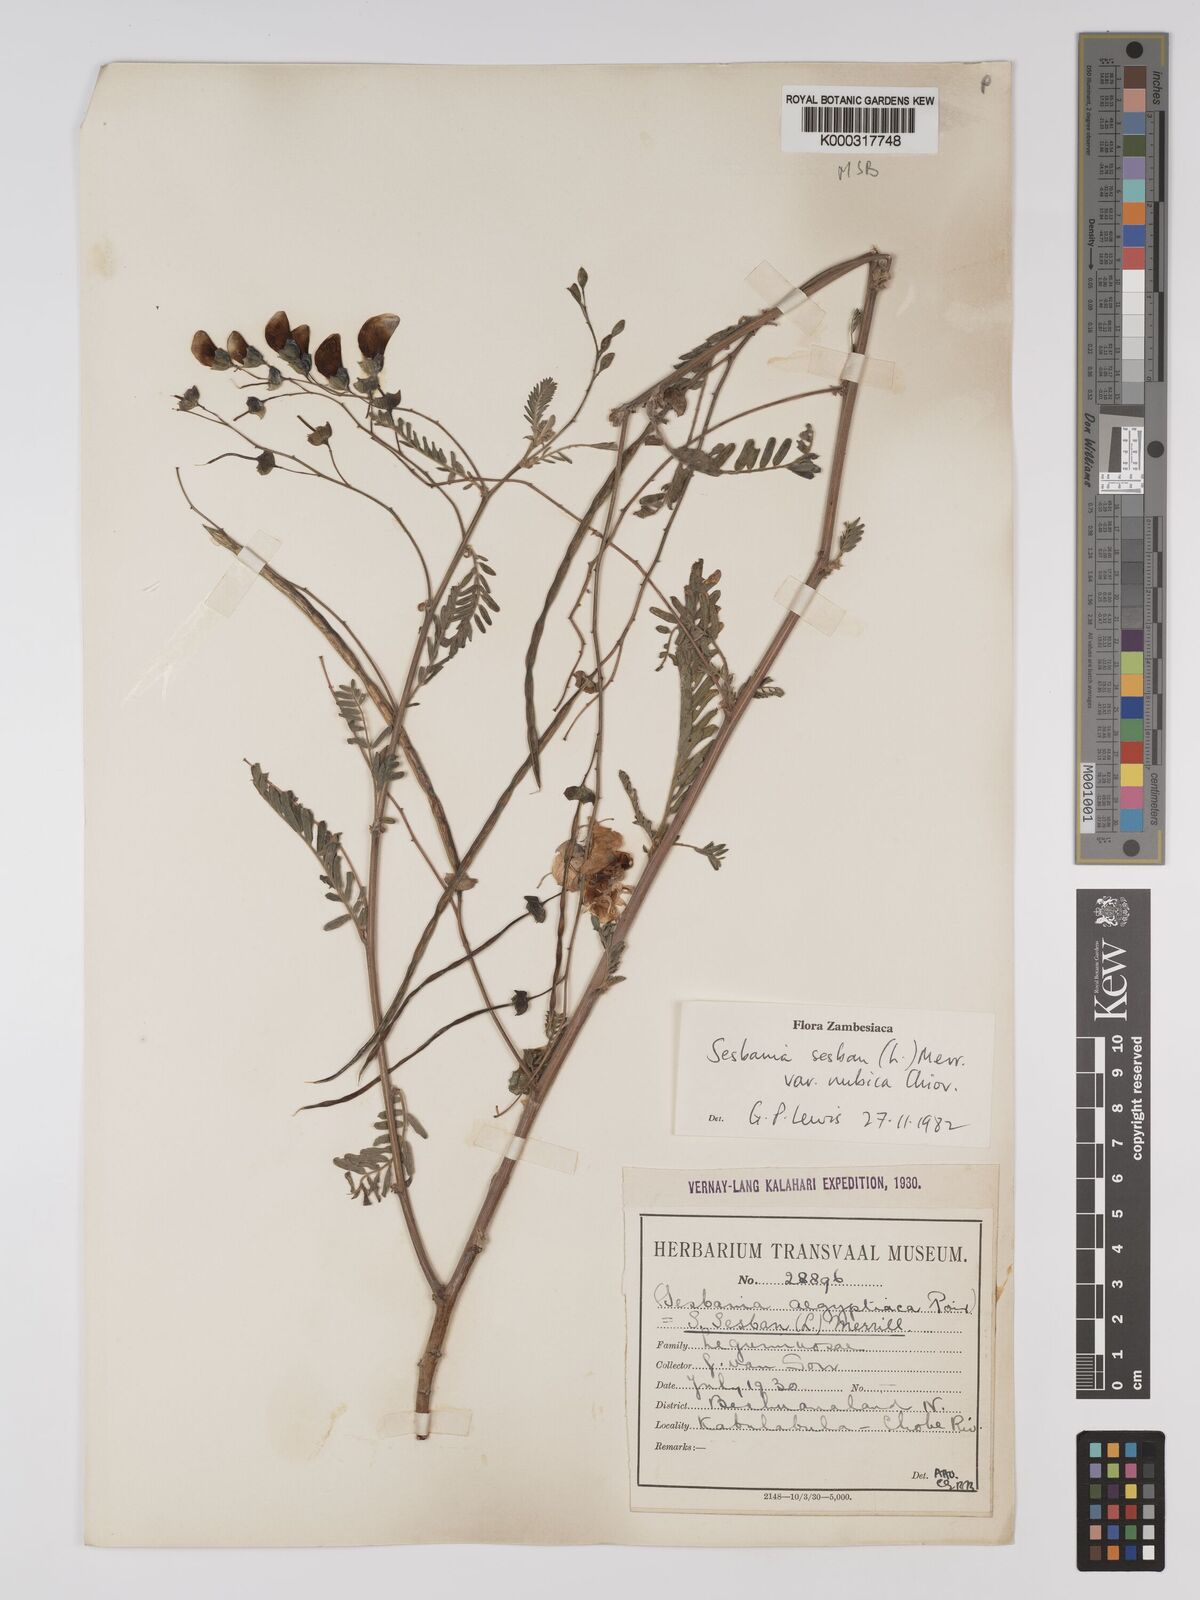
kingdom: Plantae
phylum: Tracheophyta
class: Magnoliopsida
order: Fabales
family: Fabaceae
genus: Sesbania
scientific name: Sesbania sesban
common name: Egyptian sesban
